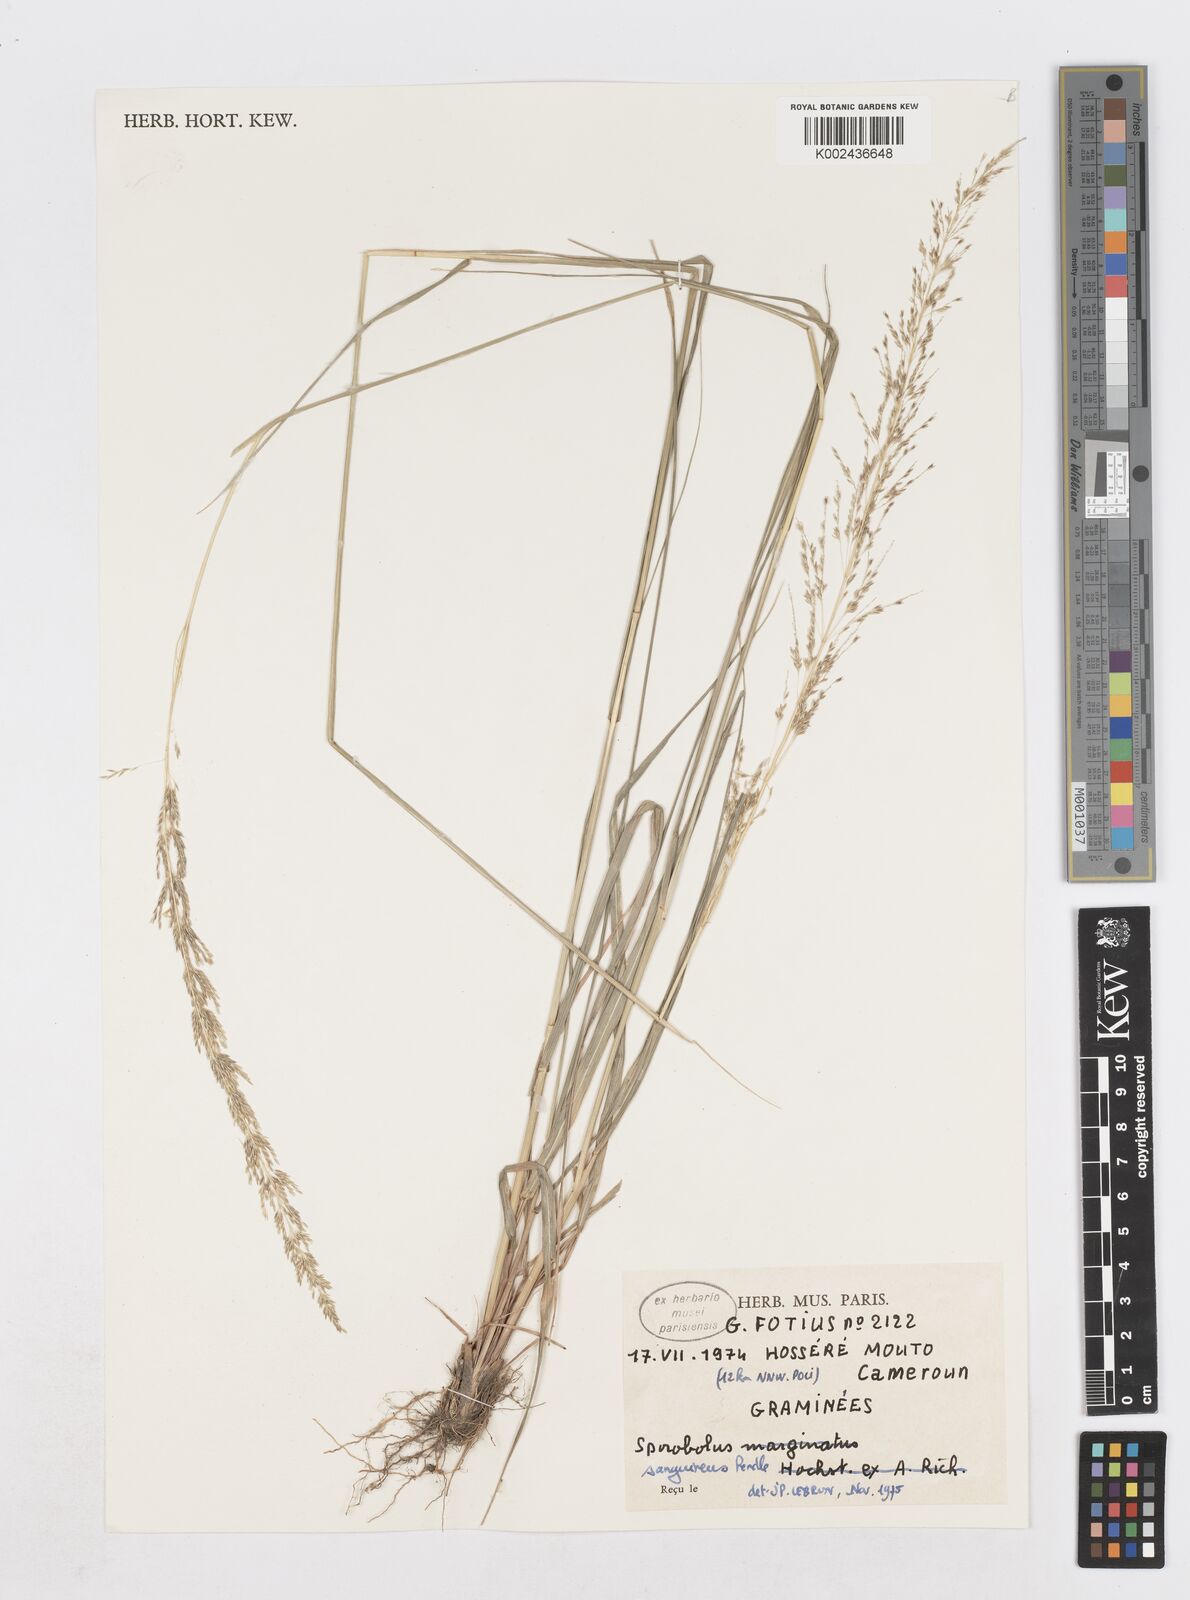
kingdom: Plantae
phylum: Tracheophyta
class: Liliopsida
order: Poales
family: Poaceae
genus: Sporobolus
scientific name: Sporobolus sanguineus
